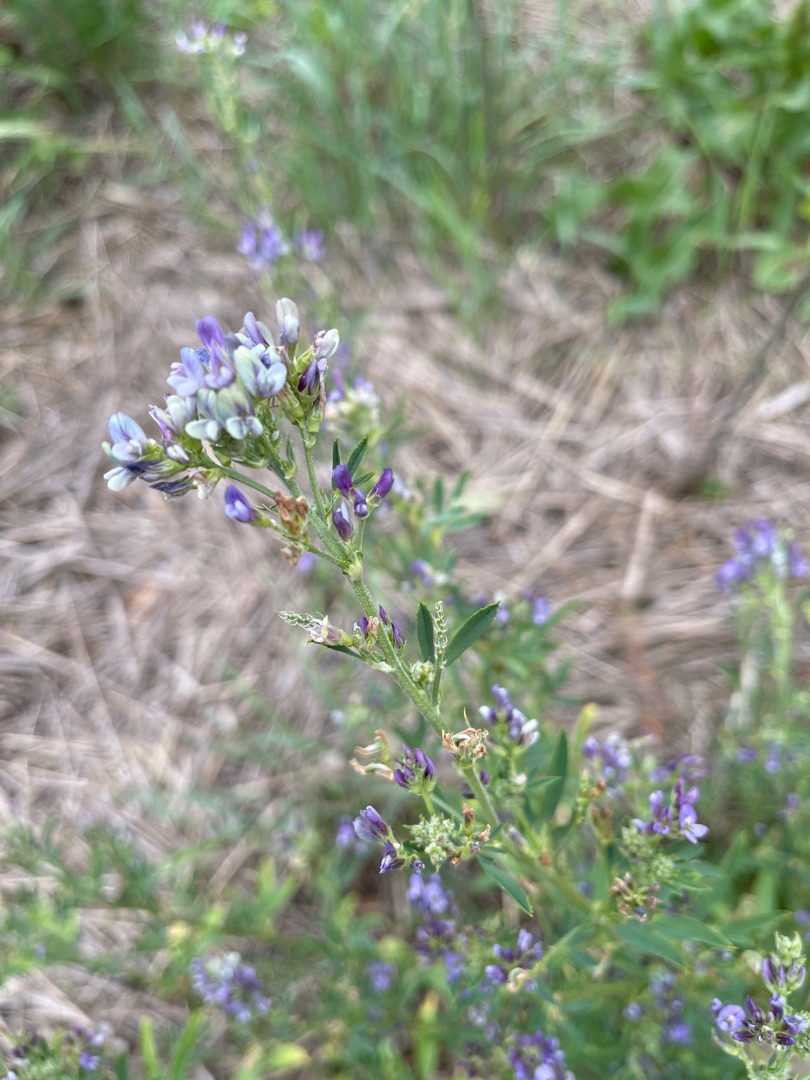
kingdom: Plantae
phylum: Tracheophyta
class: Magnoliopsida
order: Fabales
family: Fabaceae
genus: Medicago
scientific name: Medicago sativa
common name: Lucerne
